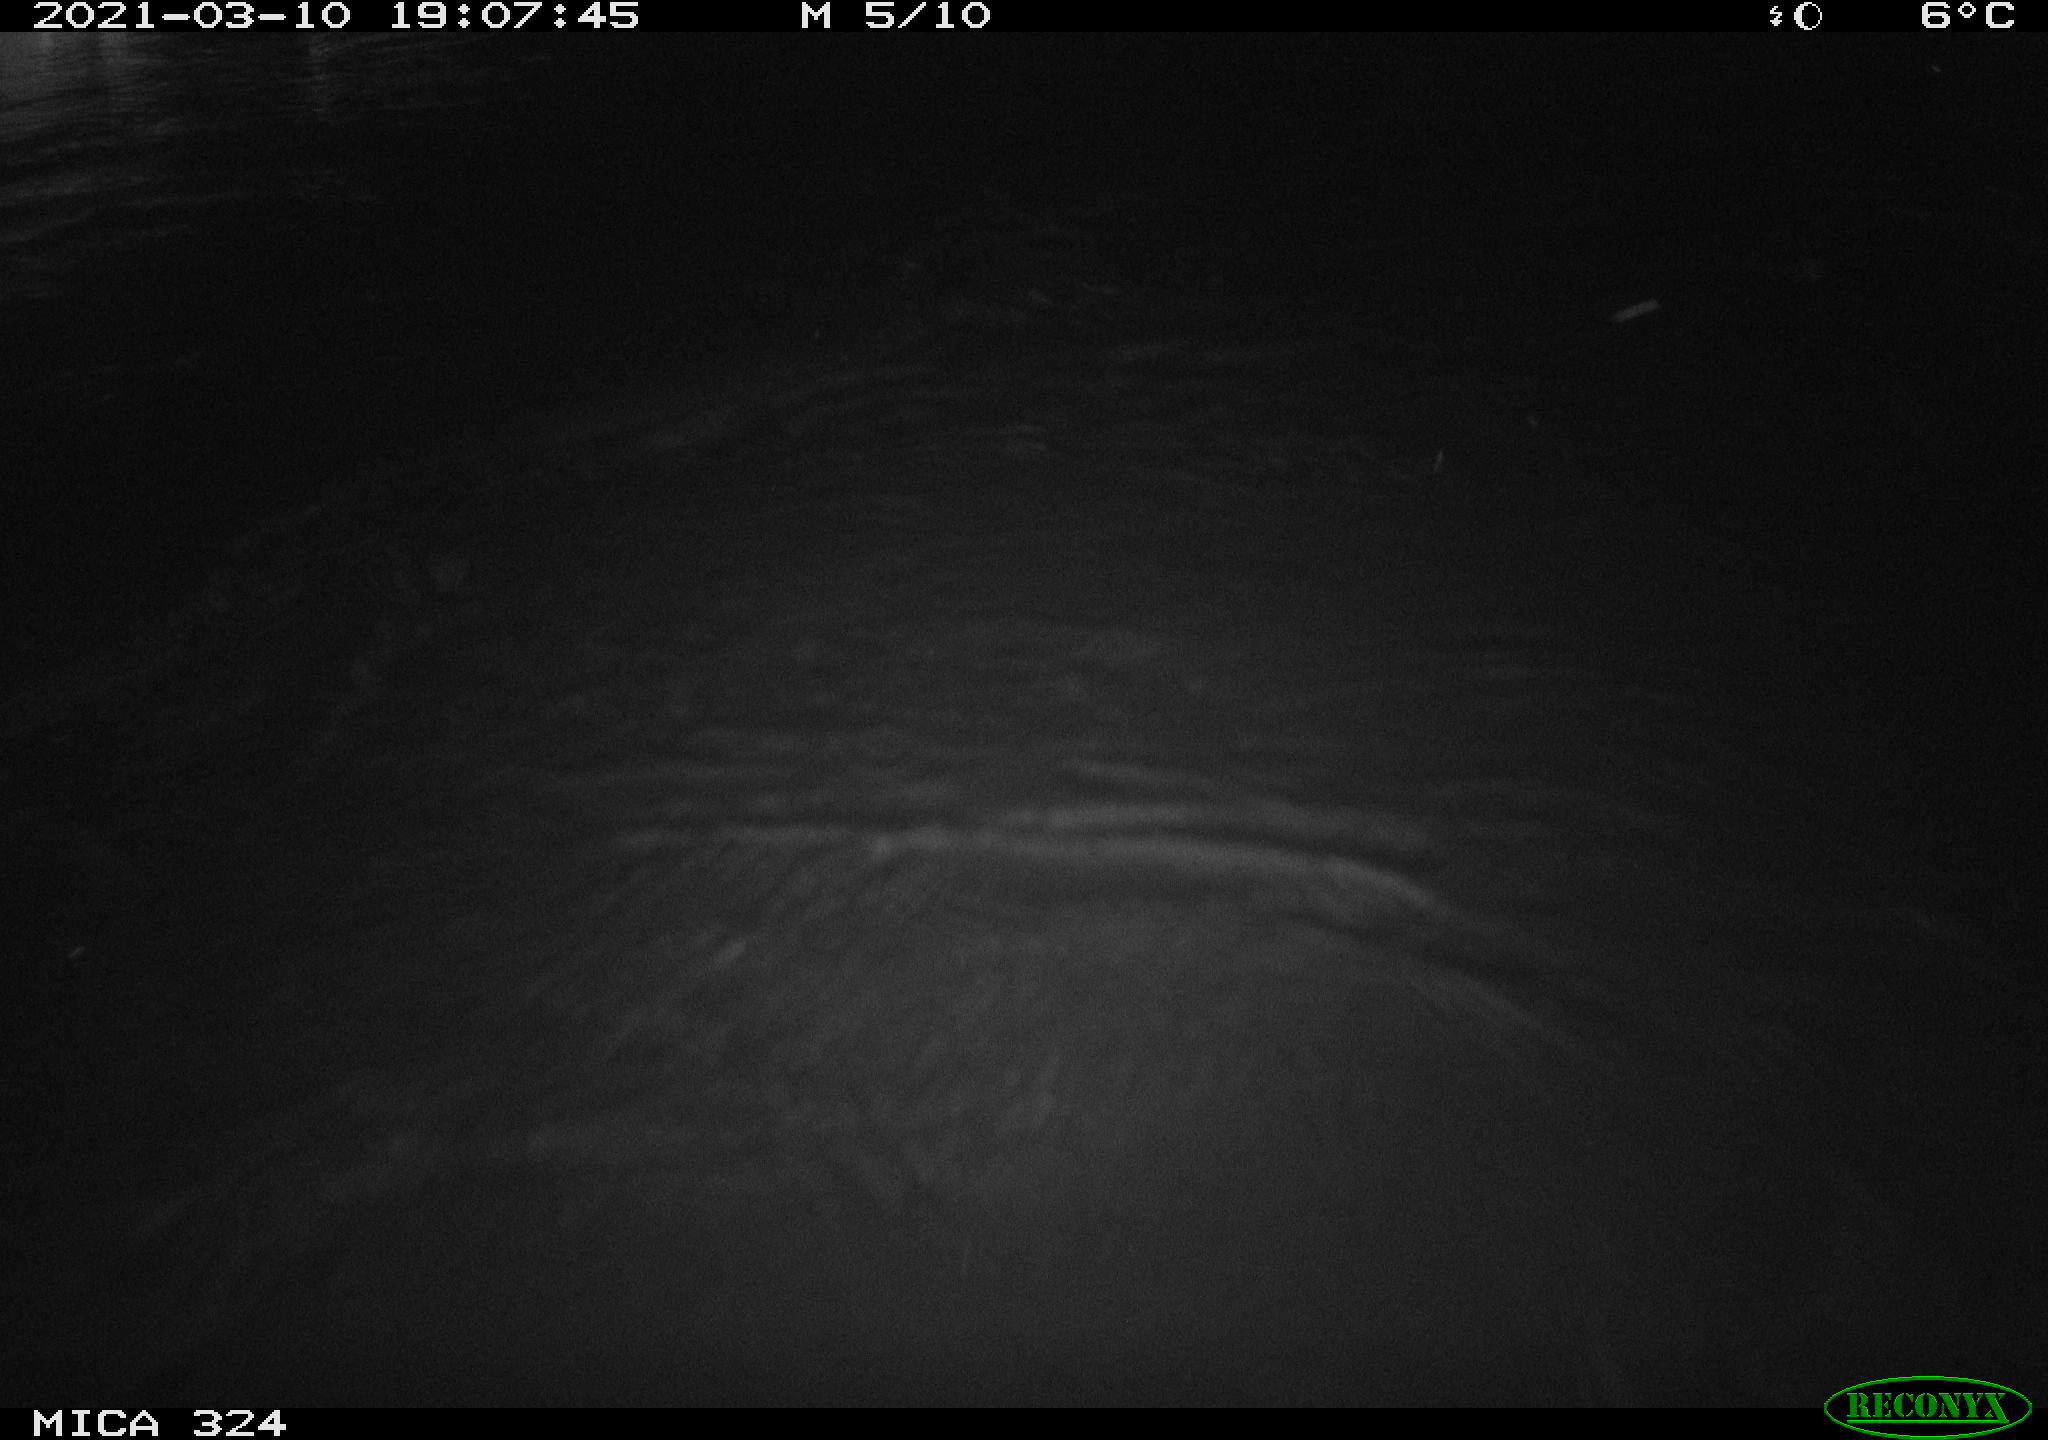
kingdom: Animalia
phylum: Chordata
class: Mammalia
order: Rodentia
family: Cricetidae
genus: Ondatra
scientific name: Ondatra zibethicus
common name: Muskrat
